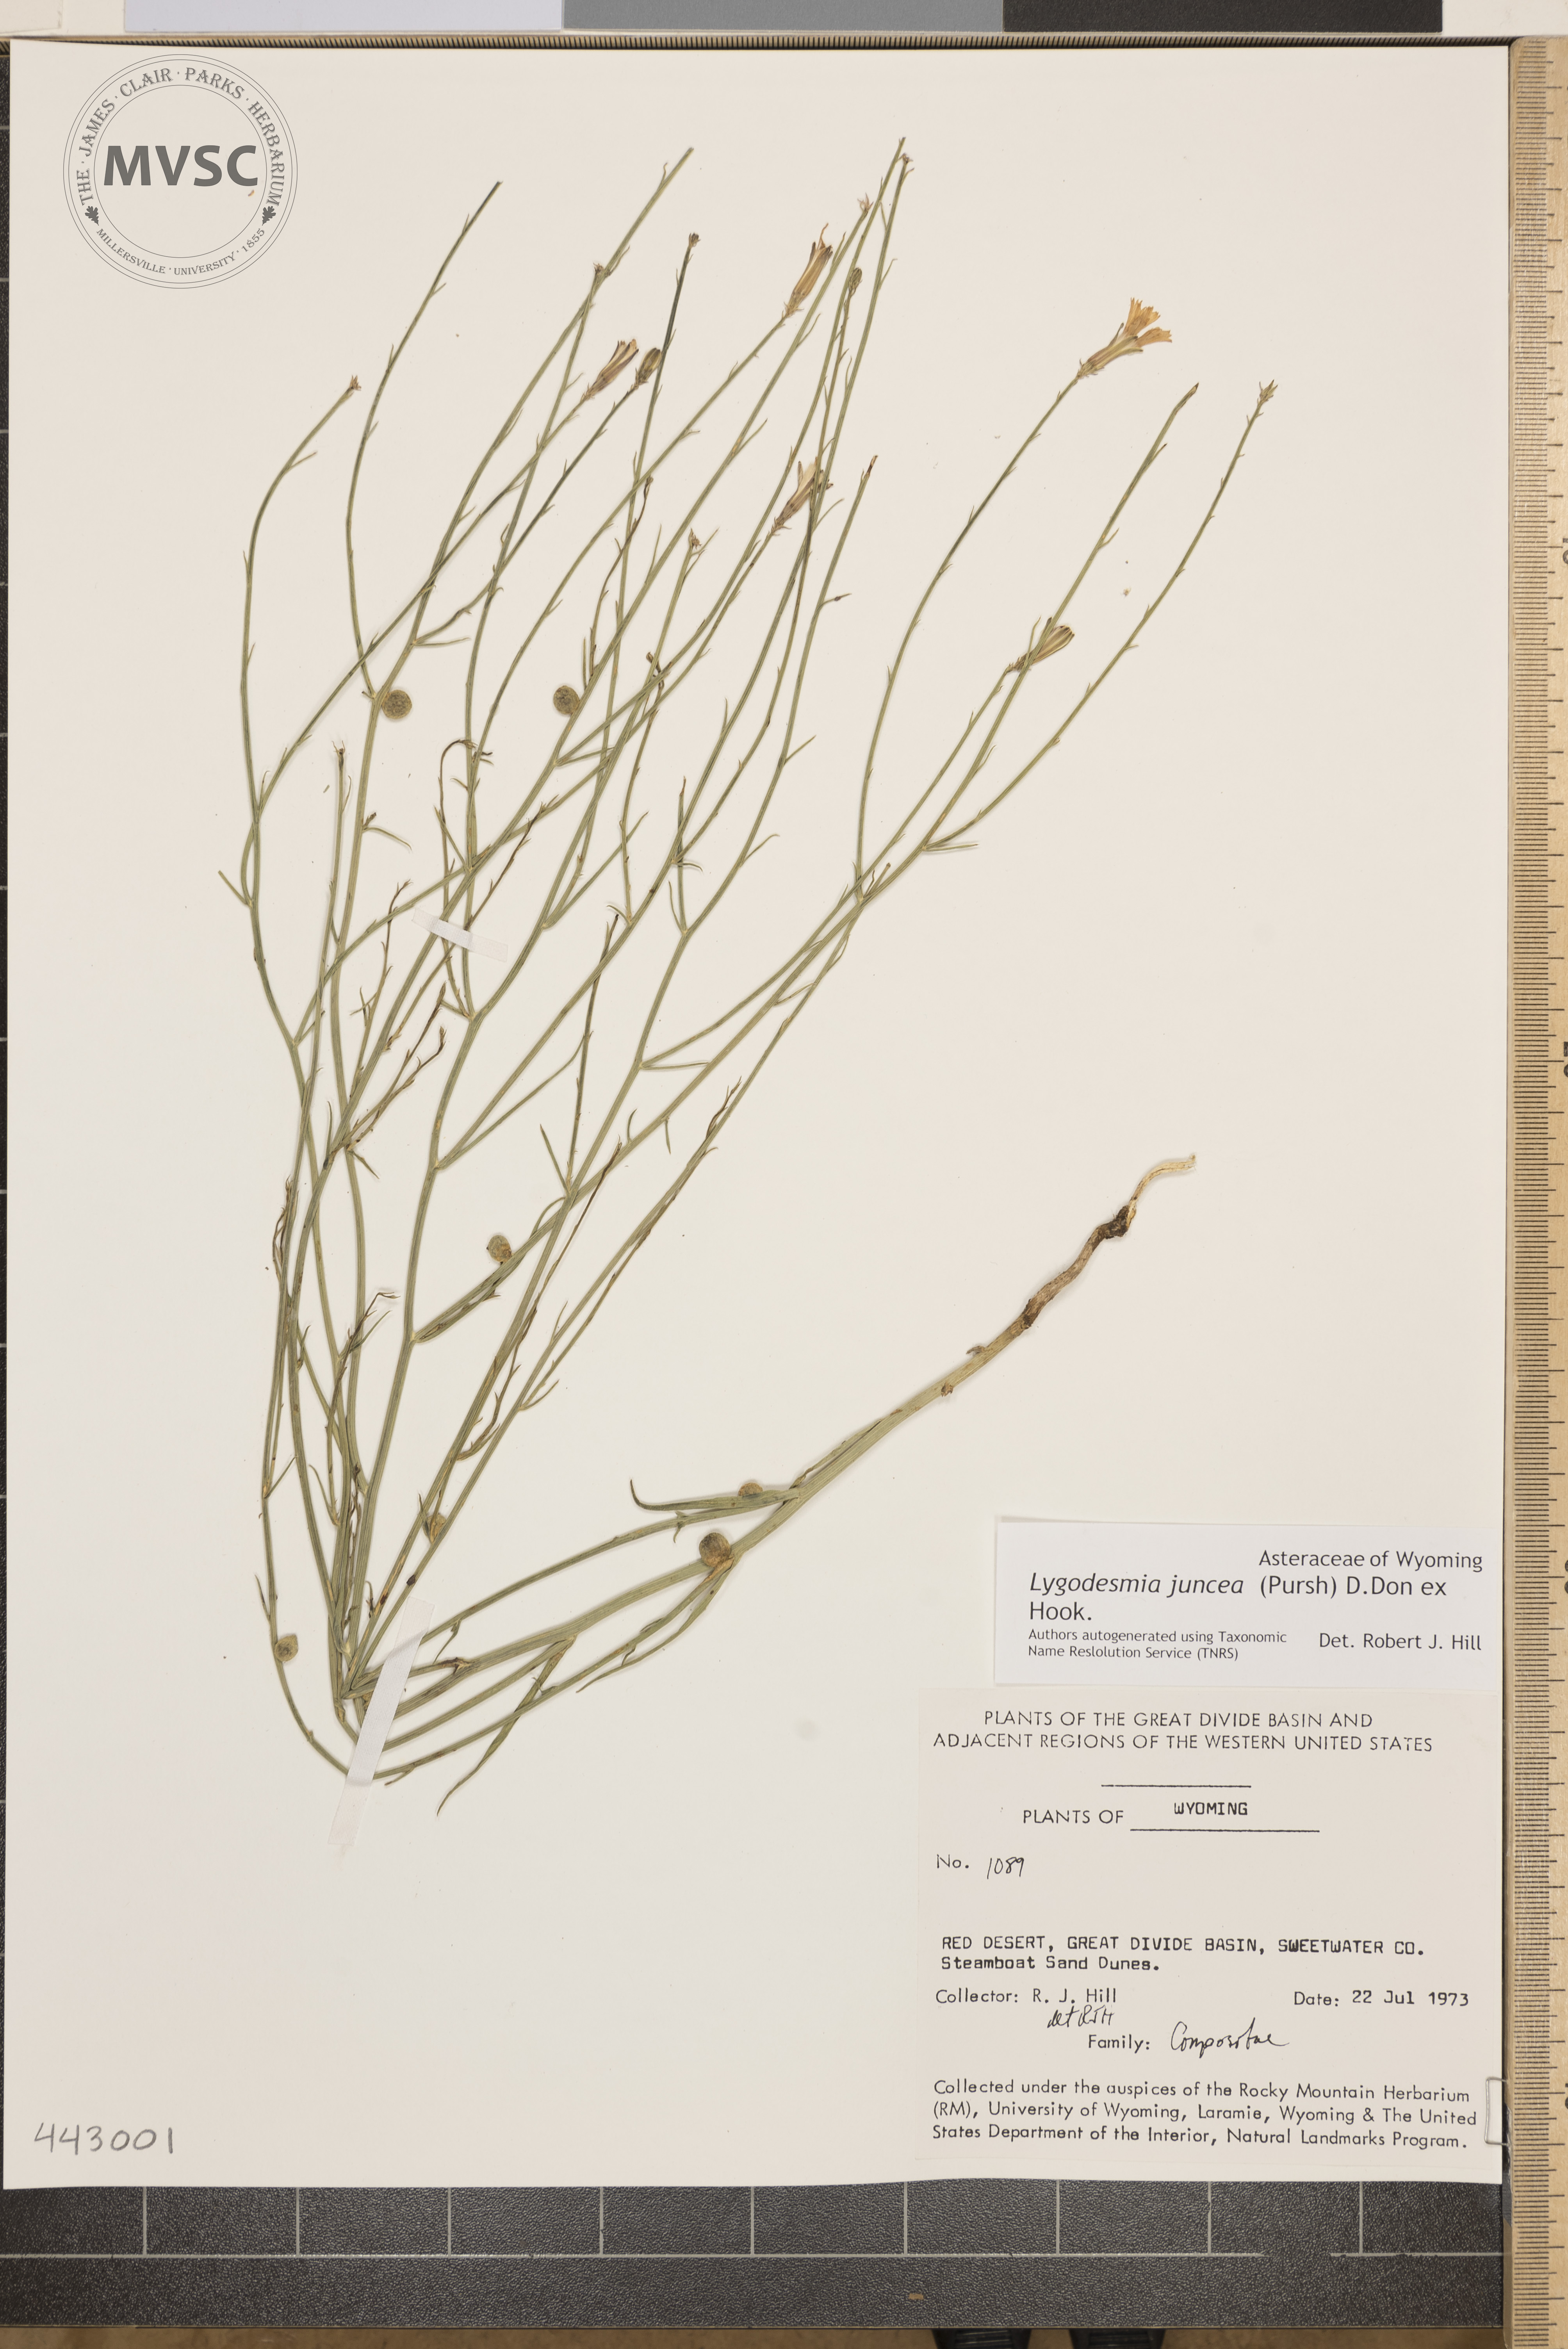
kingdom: Plantae
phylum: Tracheophyta
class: Magnoliopsida
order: Asterales
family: Asteraceae
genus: Lygodesmia
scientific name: Lygodesmia juncea
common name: Common skeletonweed
